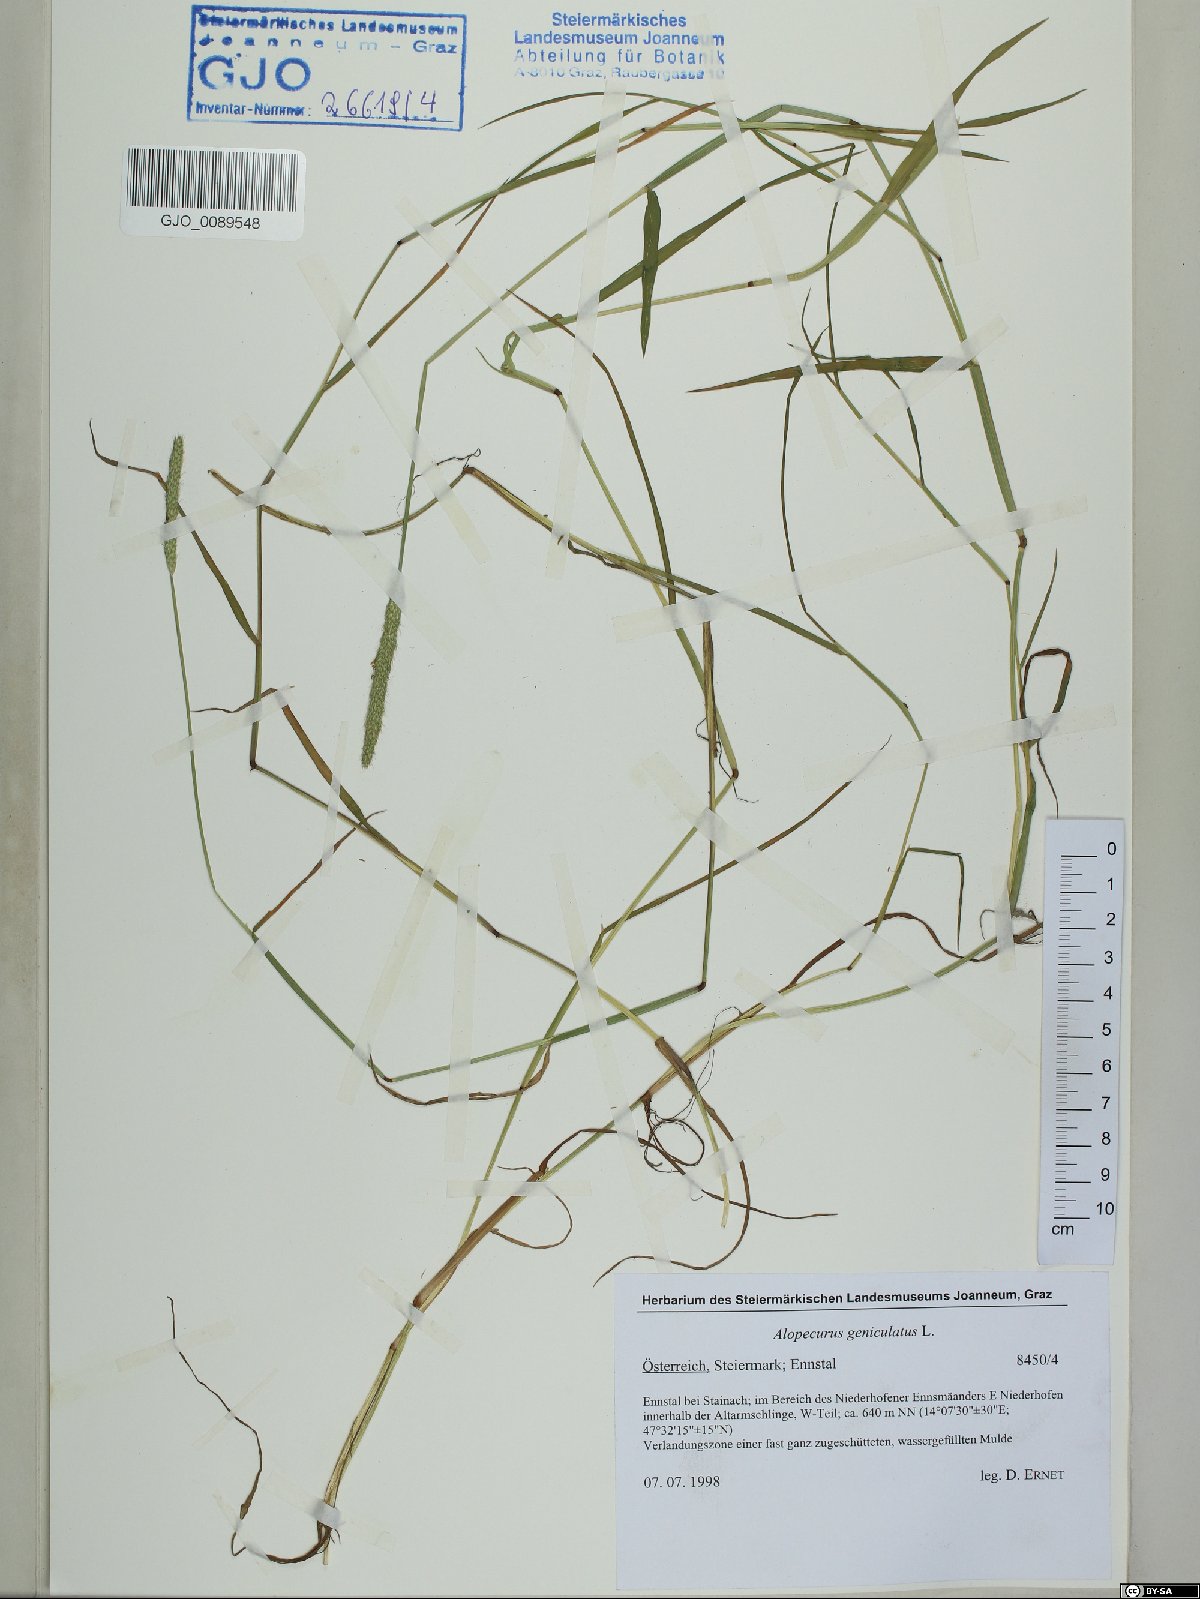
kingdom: Plantae
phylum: Tracheophyta
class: Liliopsida
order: Poales
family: Poaceae
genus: Alopecurus
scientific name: Alopecurus geniculatus
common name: Water foxtail
